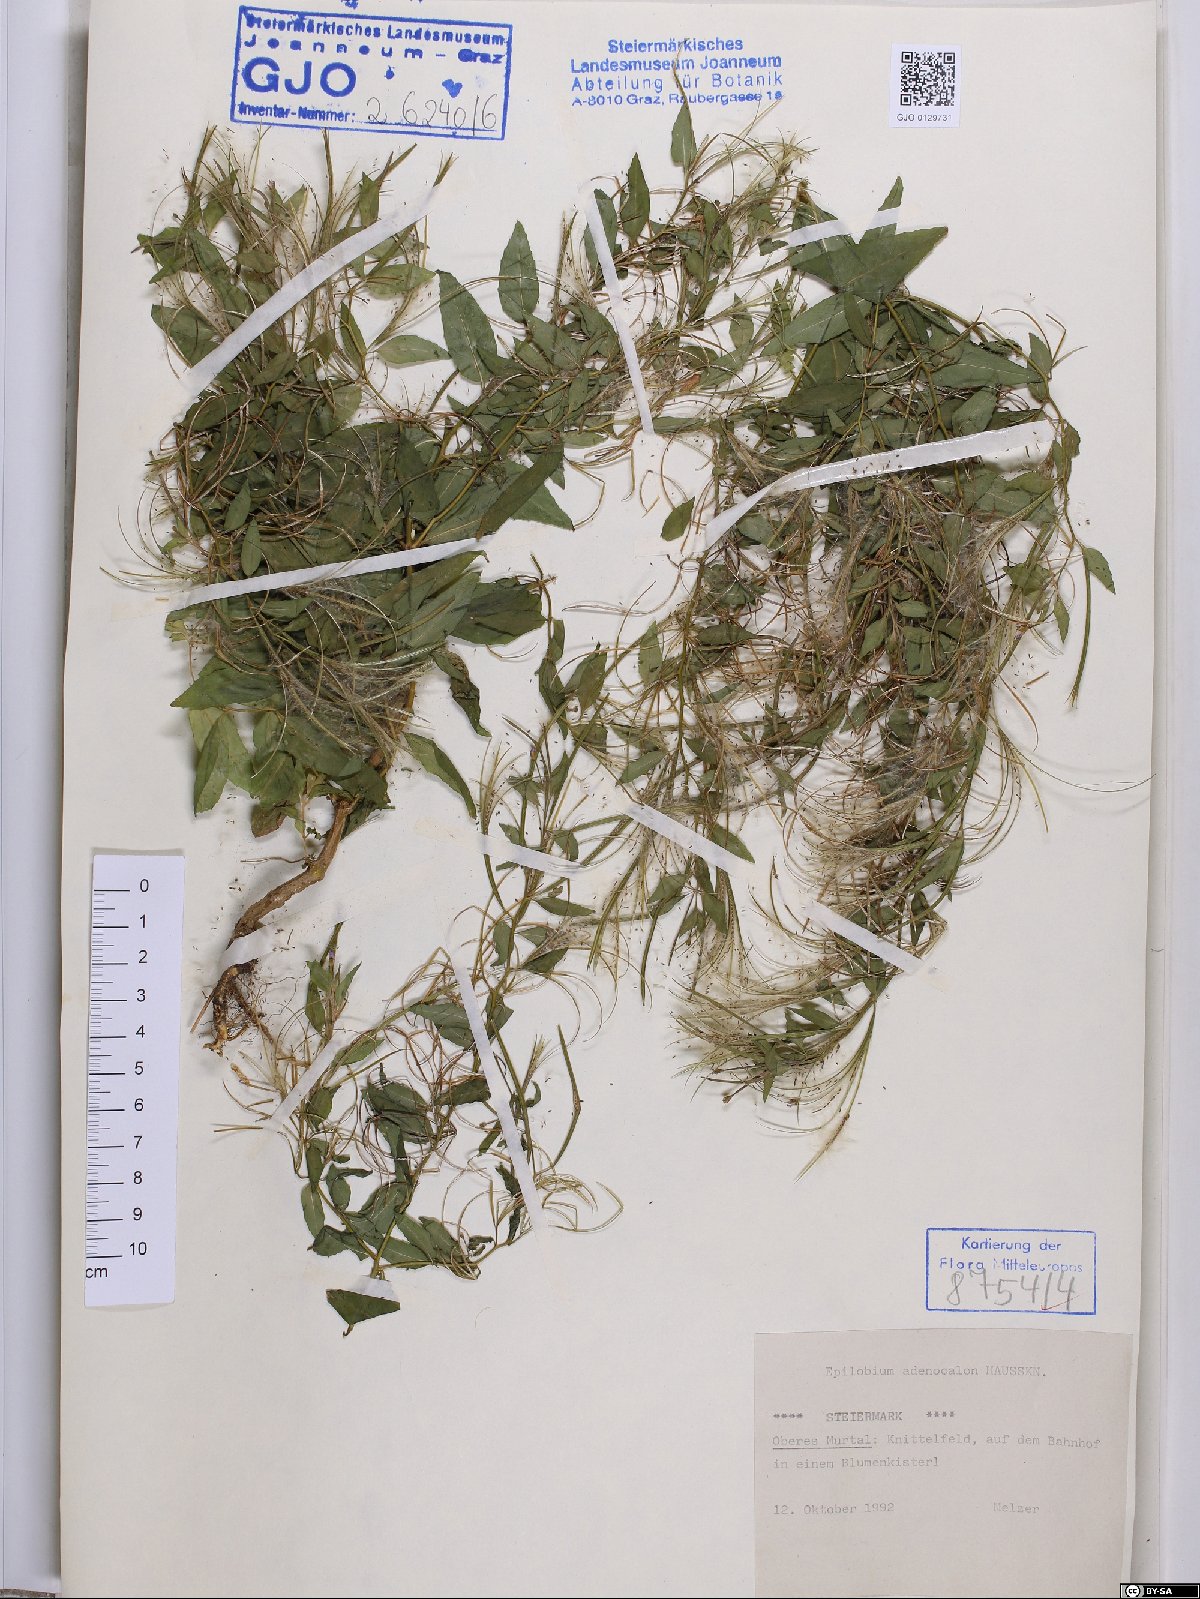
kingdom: Plantae
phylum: Tracheophyta
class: Magnoliopsida
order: Myrtales
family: Onagraceae
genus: Epilobium
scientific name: Epilobium ciliatum
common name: American willowherb
